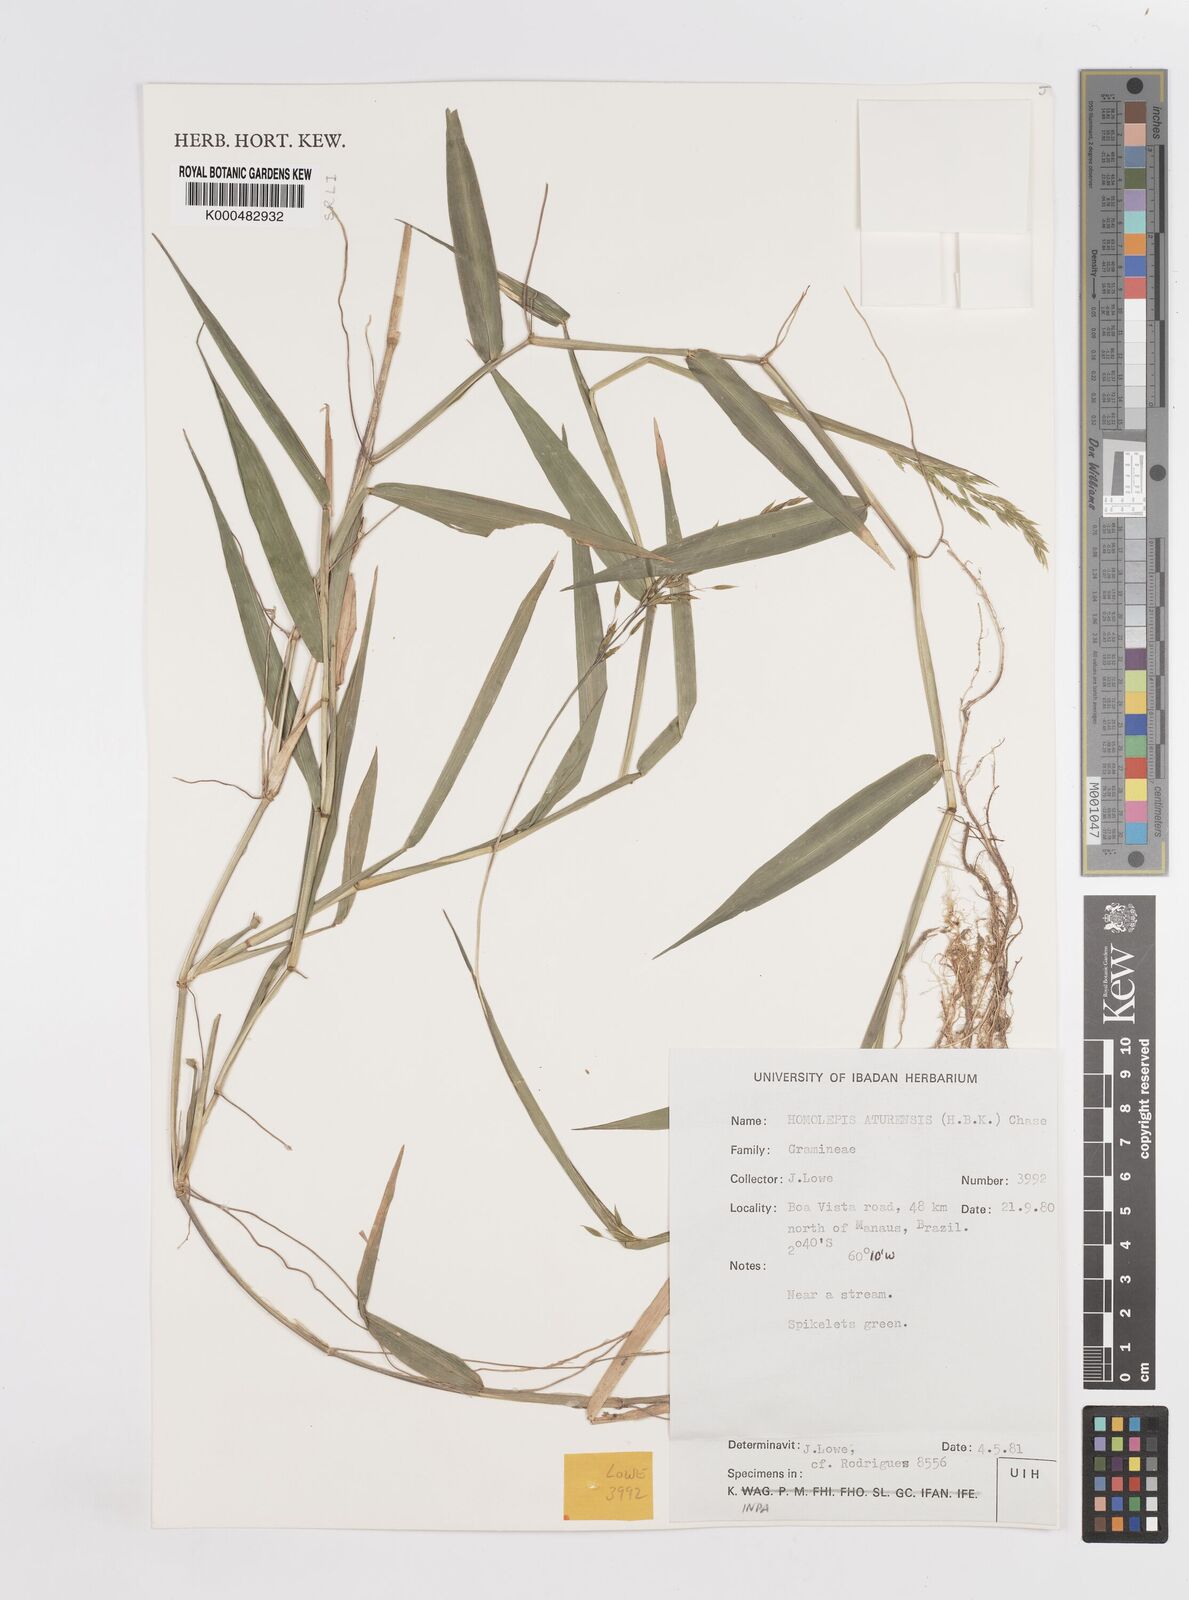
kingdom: Plantae
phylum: Tracheophyta
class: Liliopsida
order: Poales
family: Poaceae
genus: Homolepis
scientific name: Homolepis aturensis
